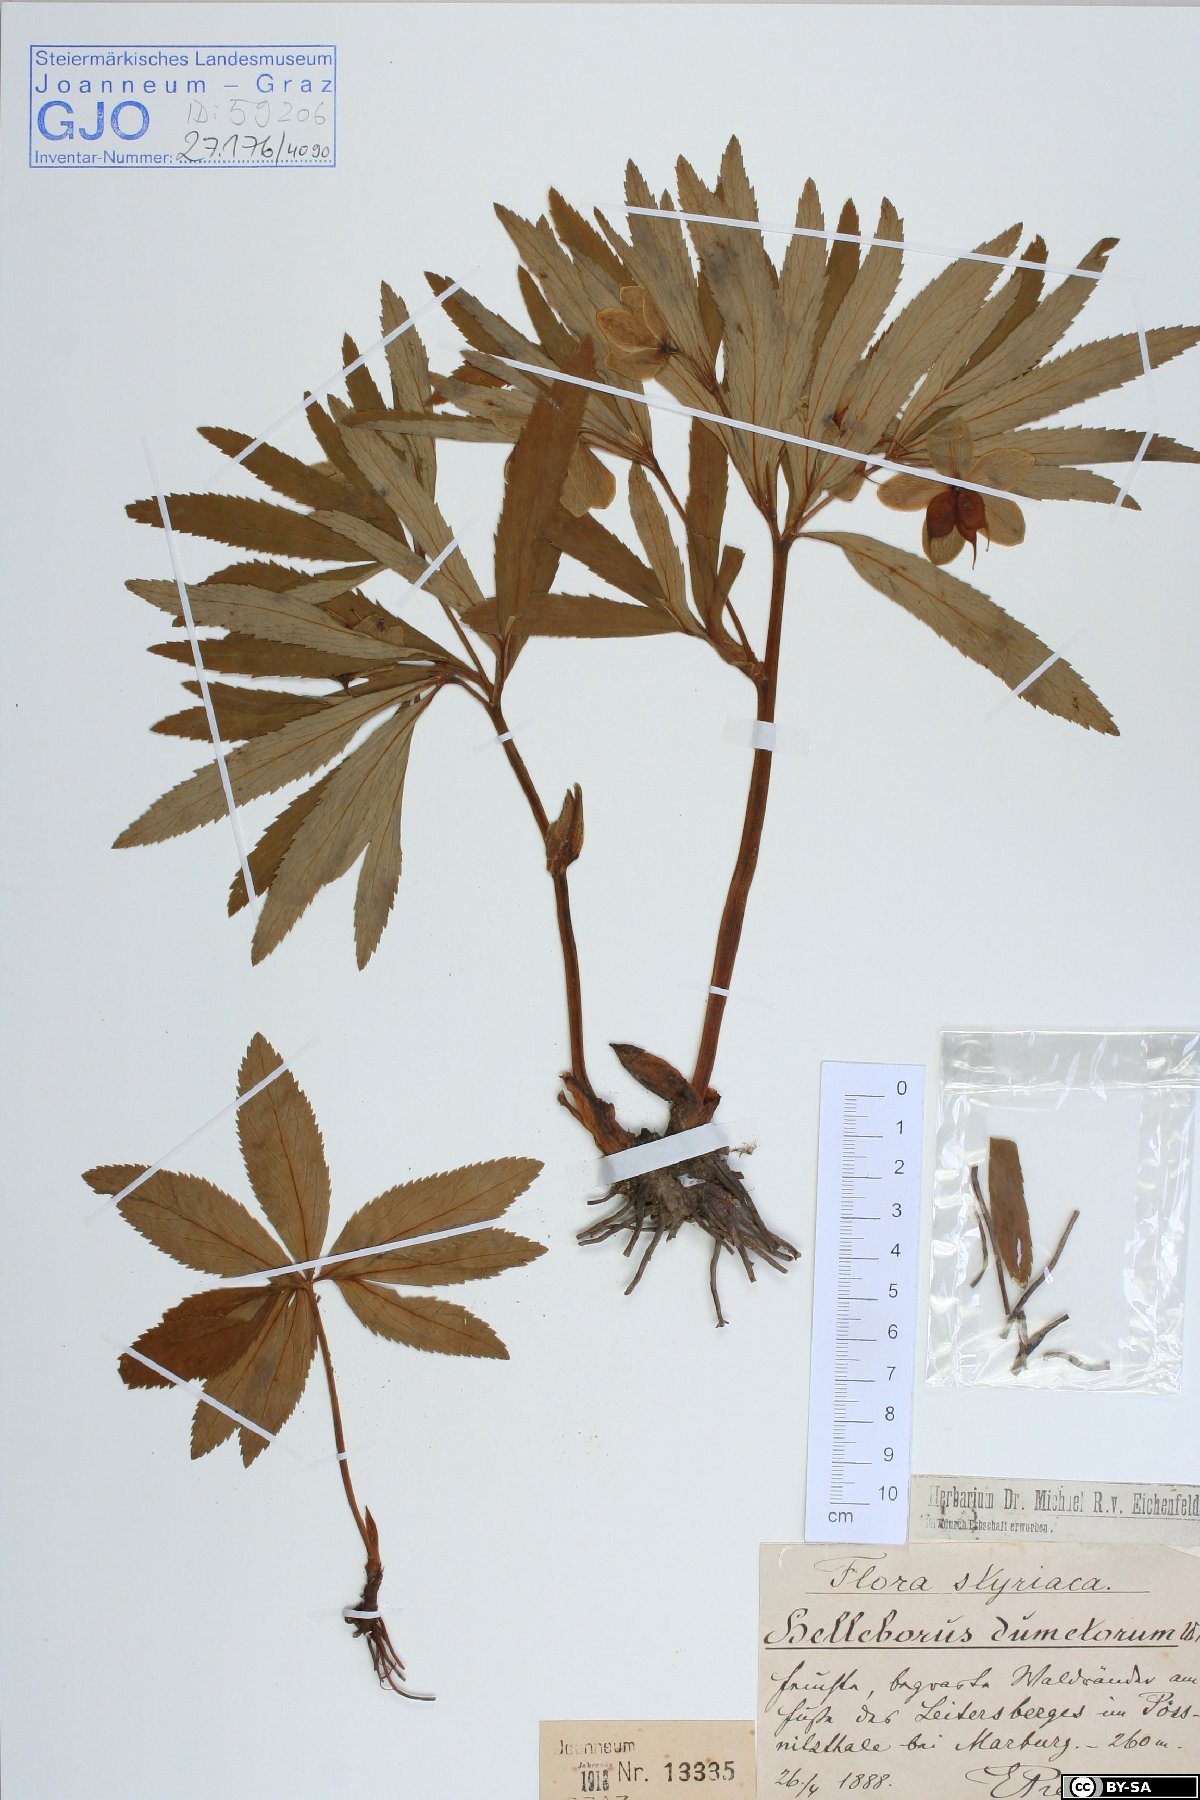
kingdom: Plantae
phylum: Tracheophyta
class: Magnoliopsida
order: Ranunculales
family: Ranunculaceae
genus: Helleborus
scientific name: Helleborus dumetorum
